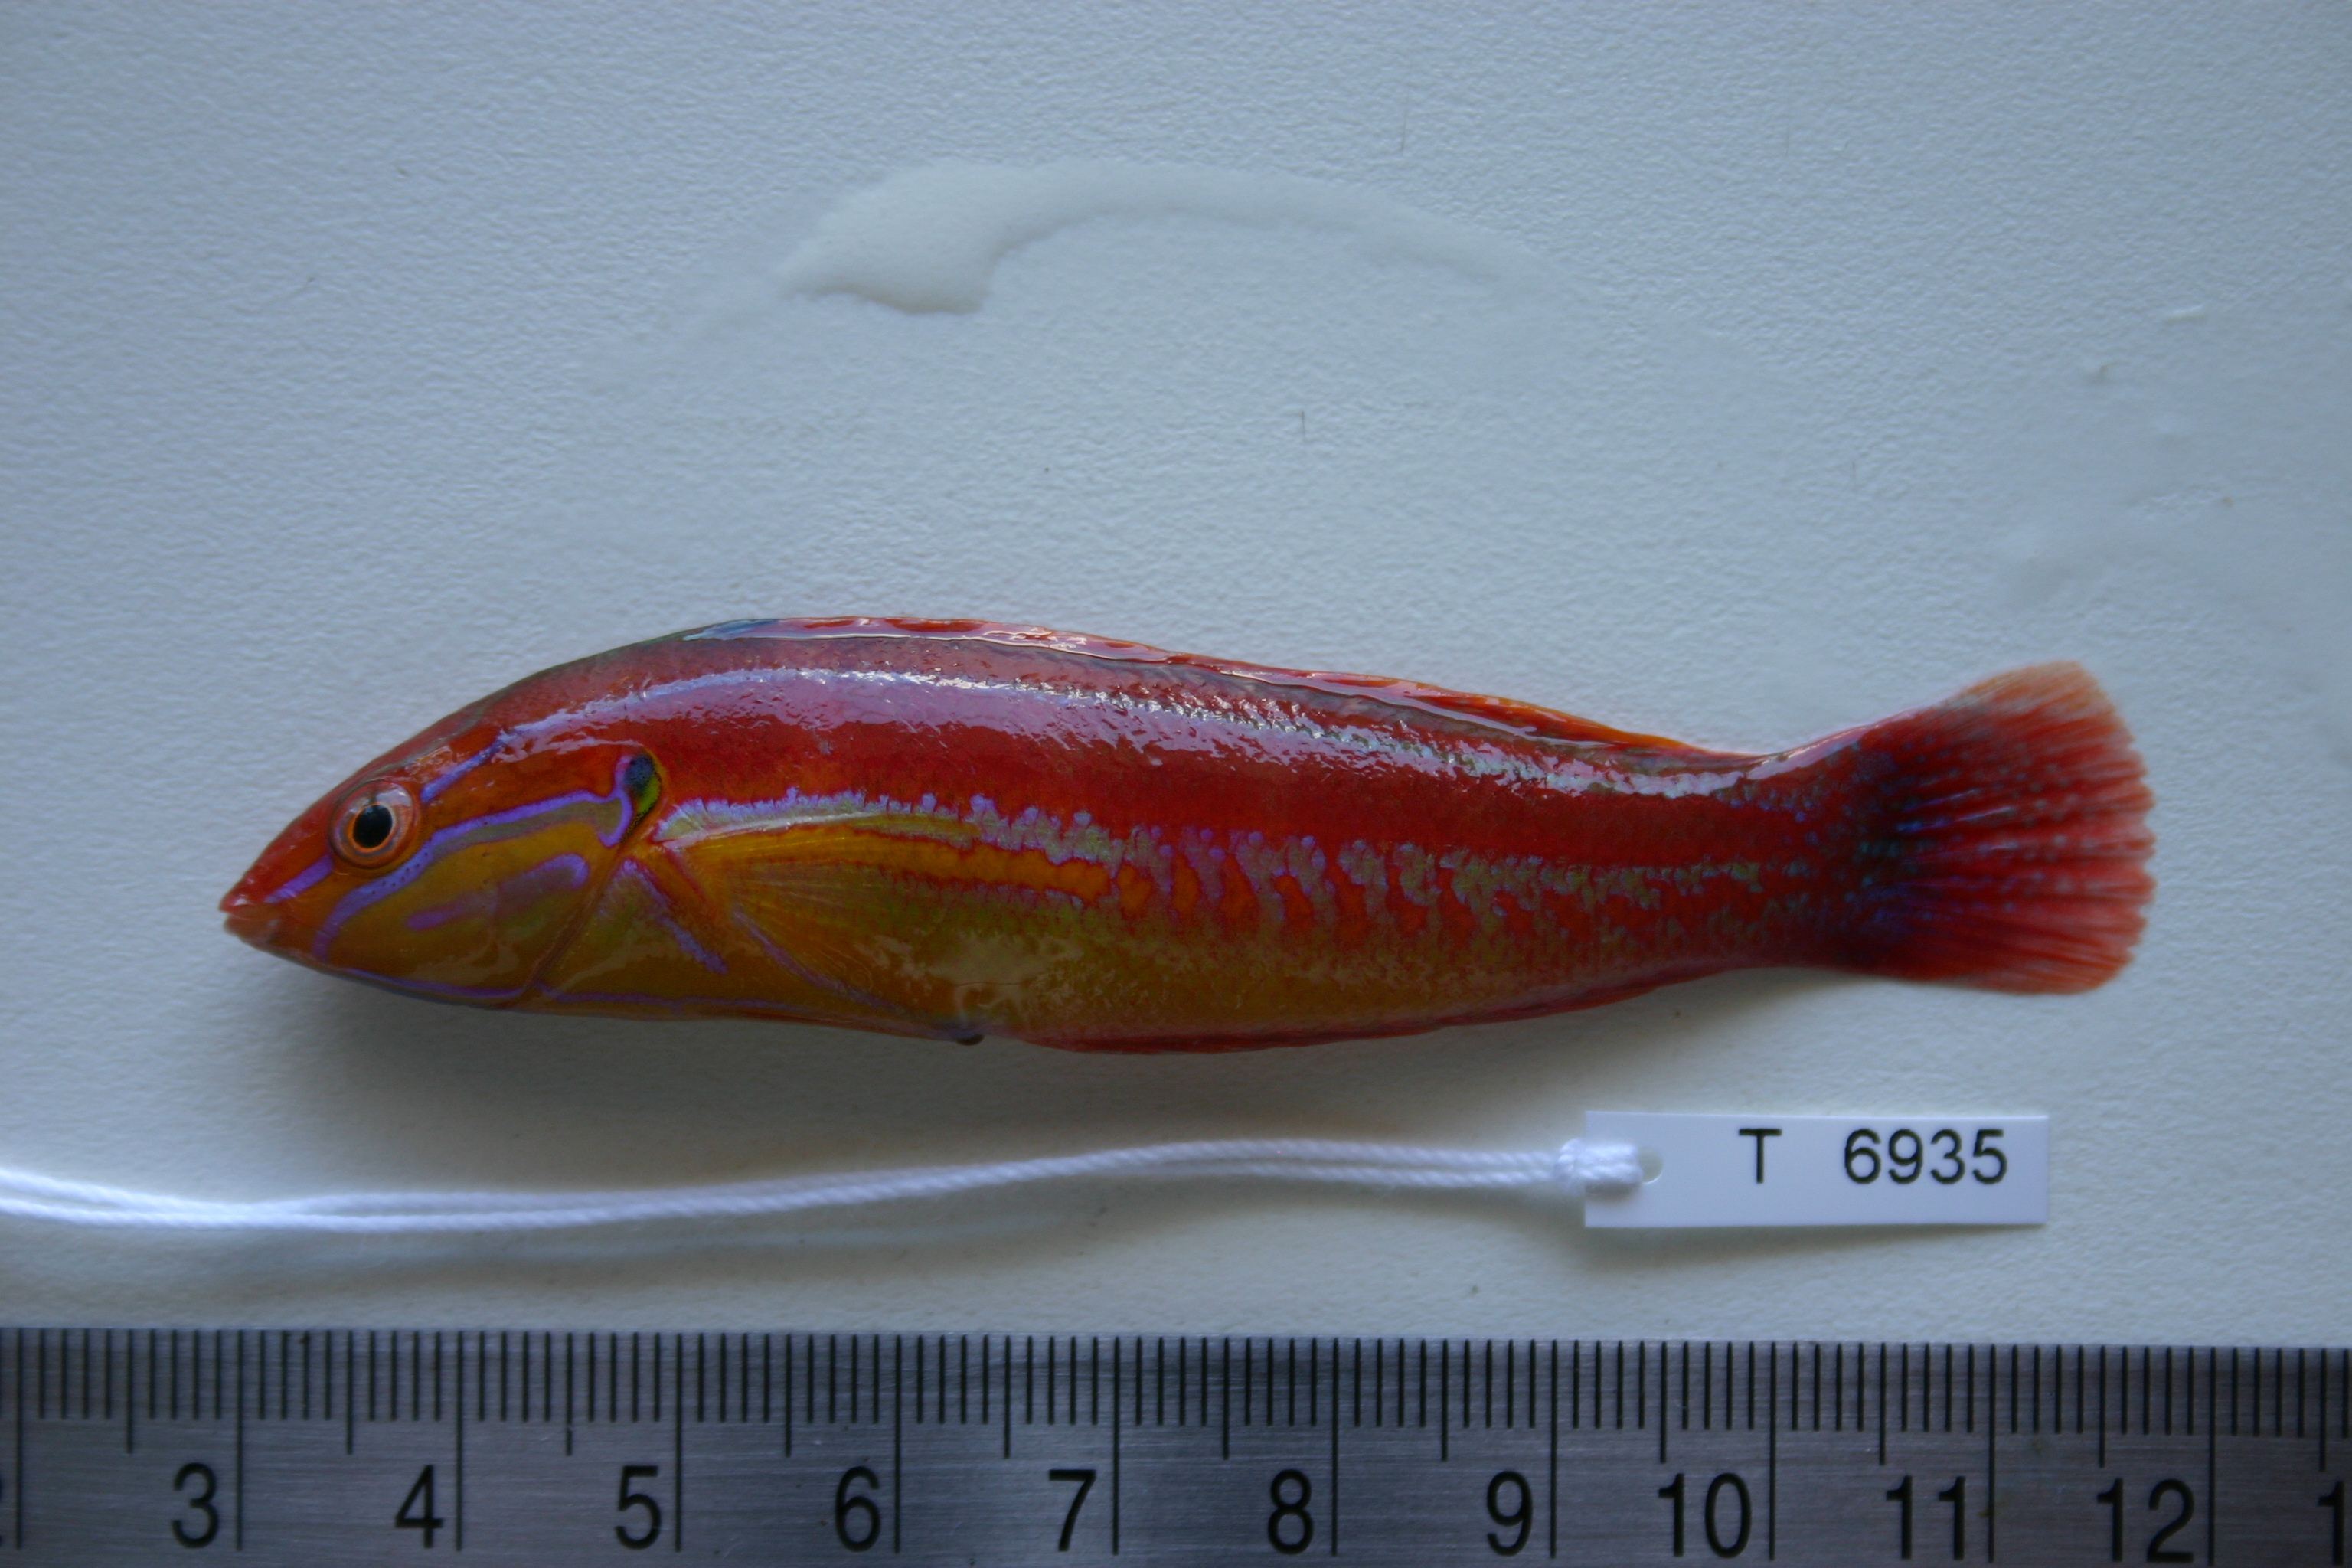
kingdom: Animalia
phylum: Chordata
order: Perciformes
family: Labridae
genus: Coris
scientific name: Coris caudimacula
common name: Spottail coris
